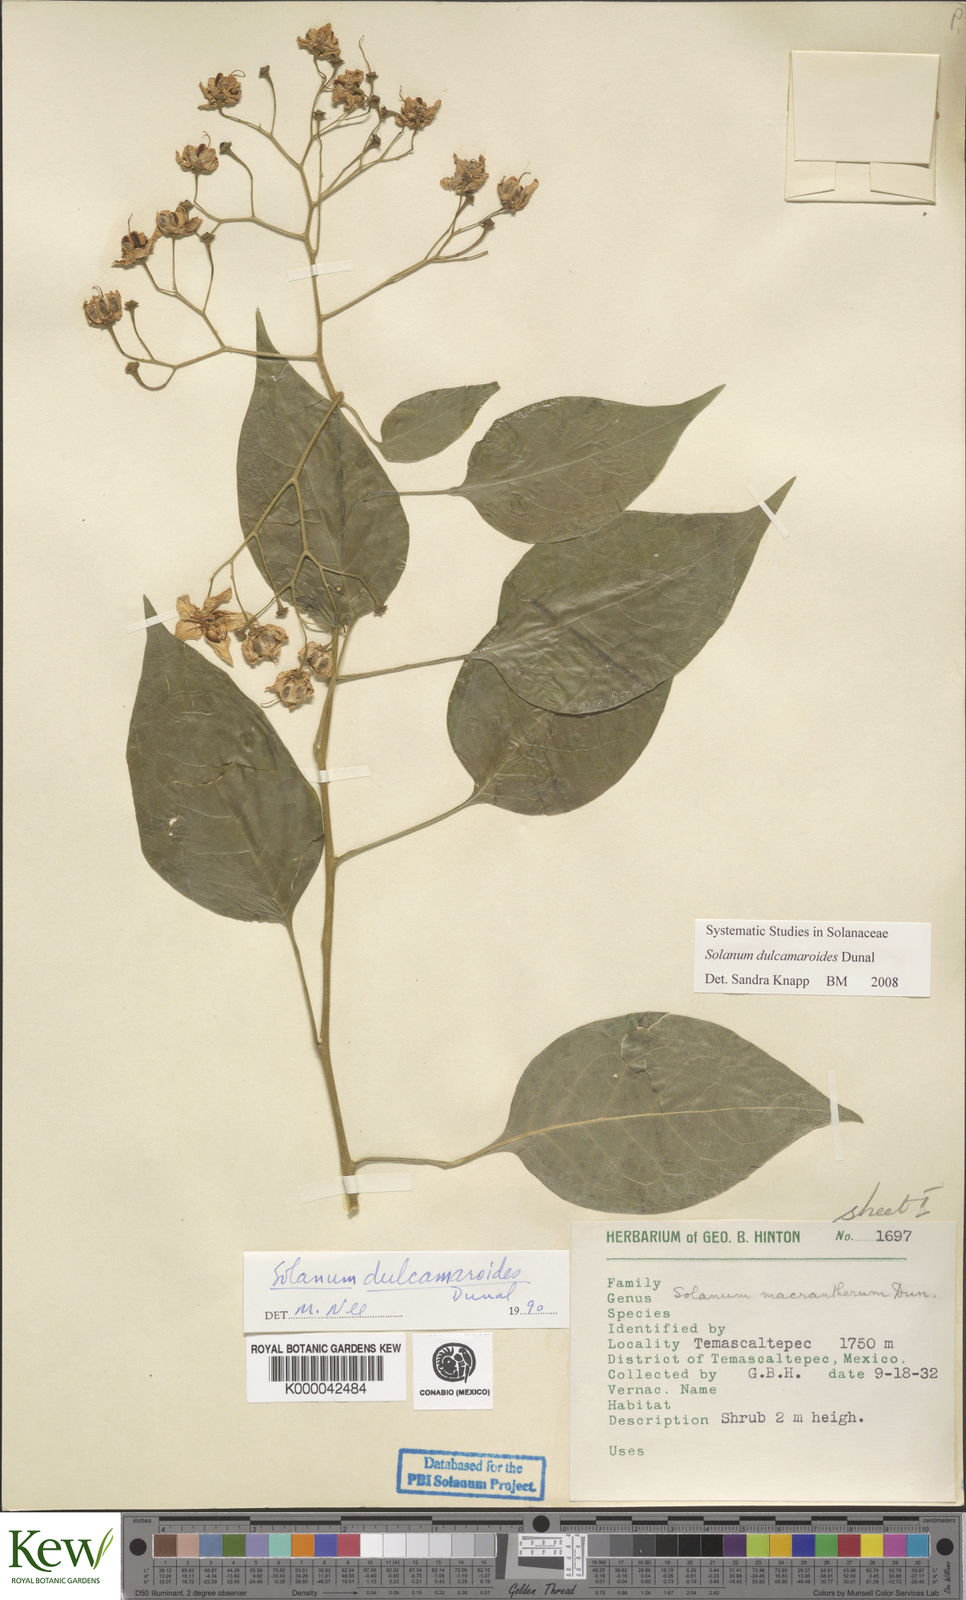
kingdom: Plantae
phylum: Tracheophyta
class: Magnoliopsida
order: Solanales
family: Solanaceae
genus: Solanum
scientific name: Solanum dulcamaroides
